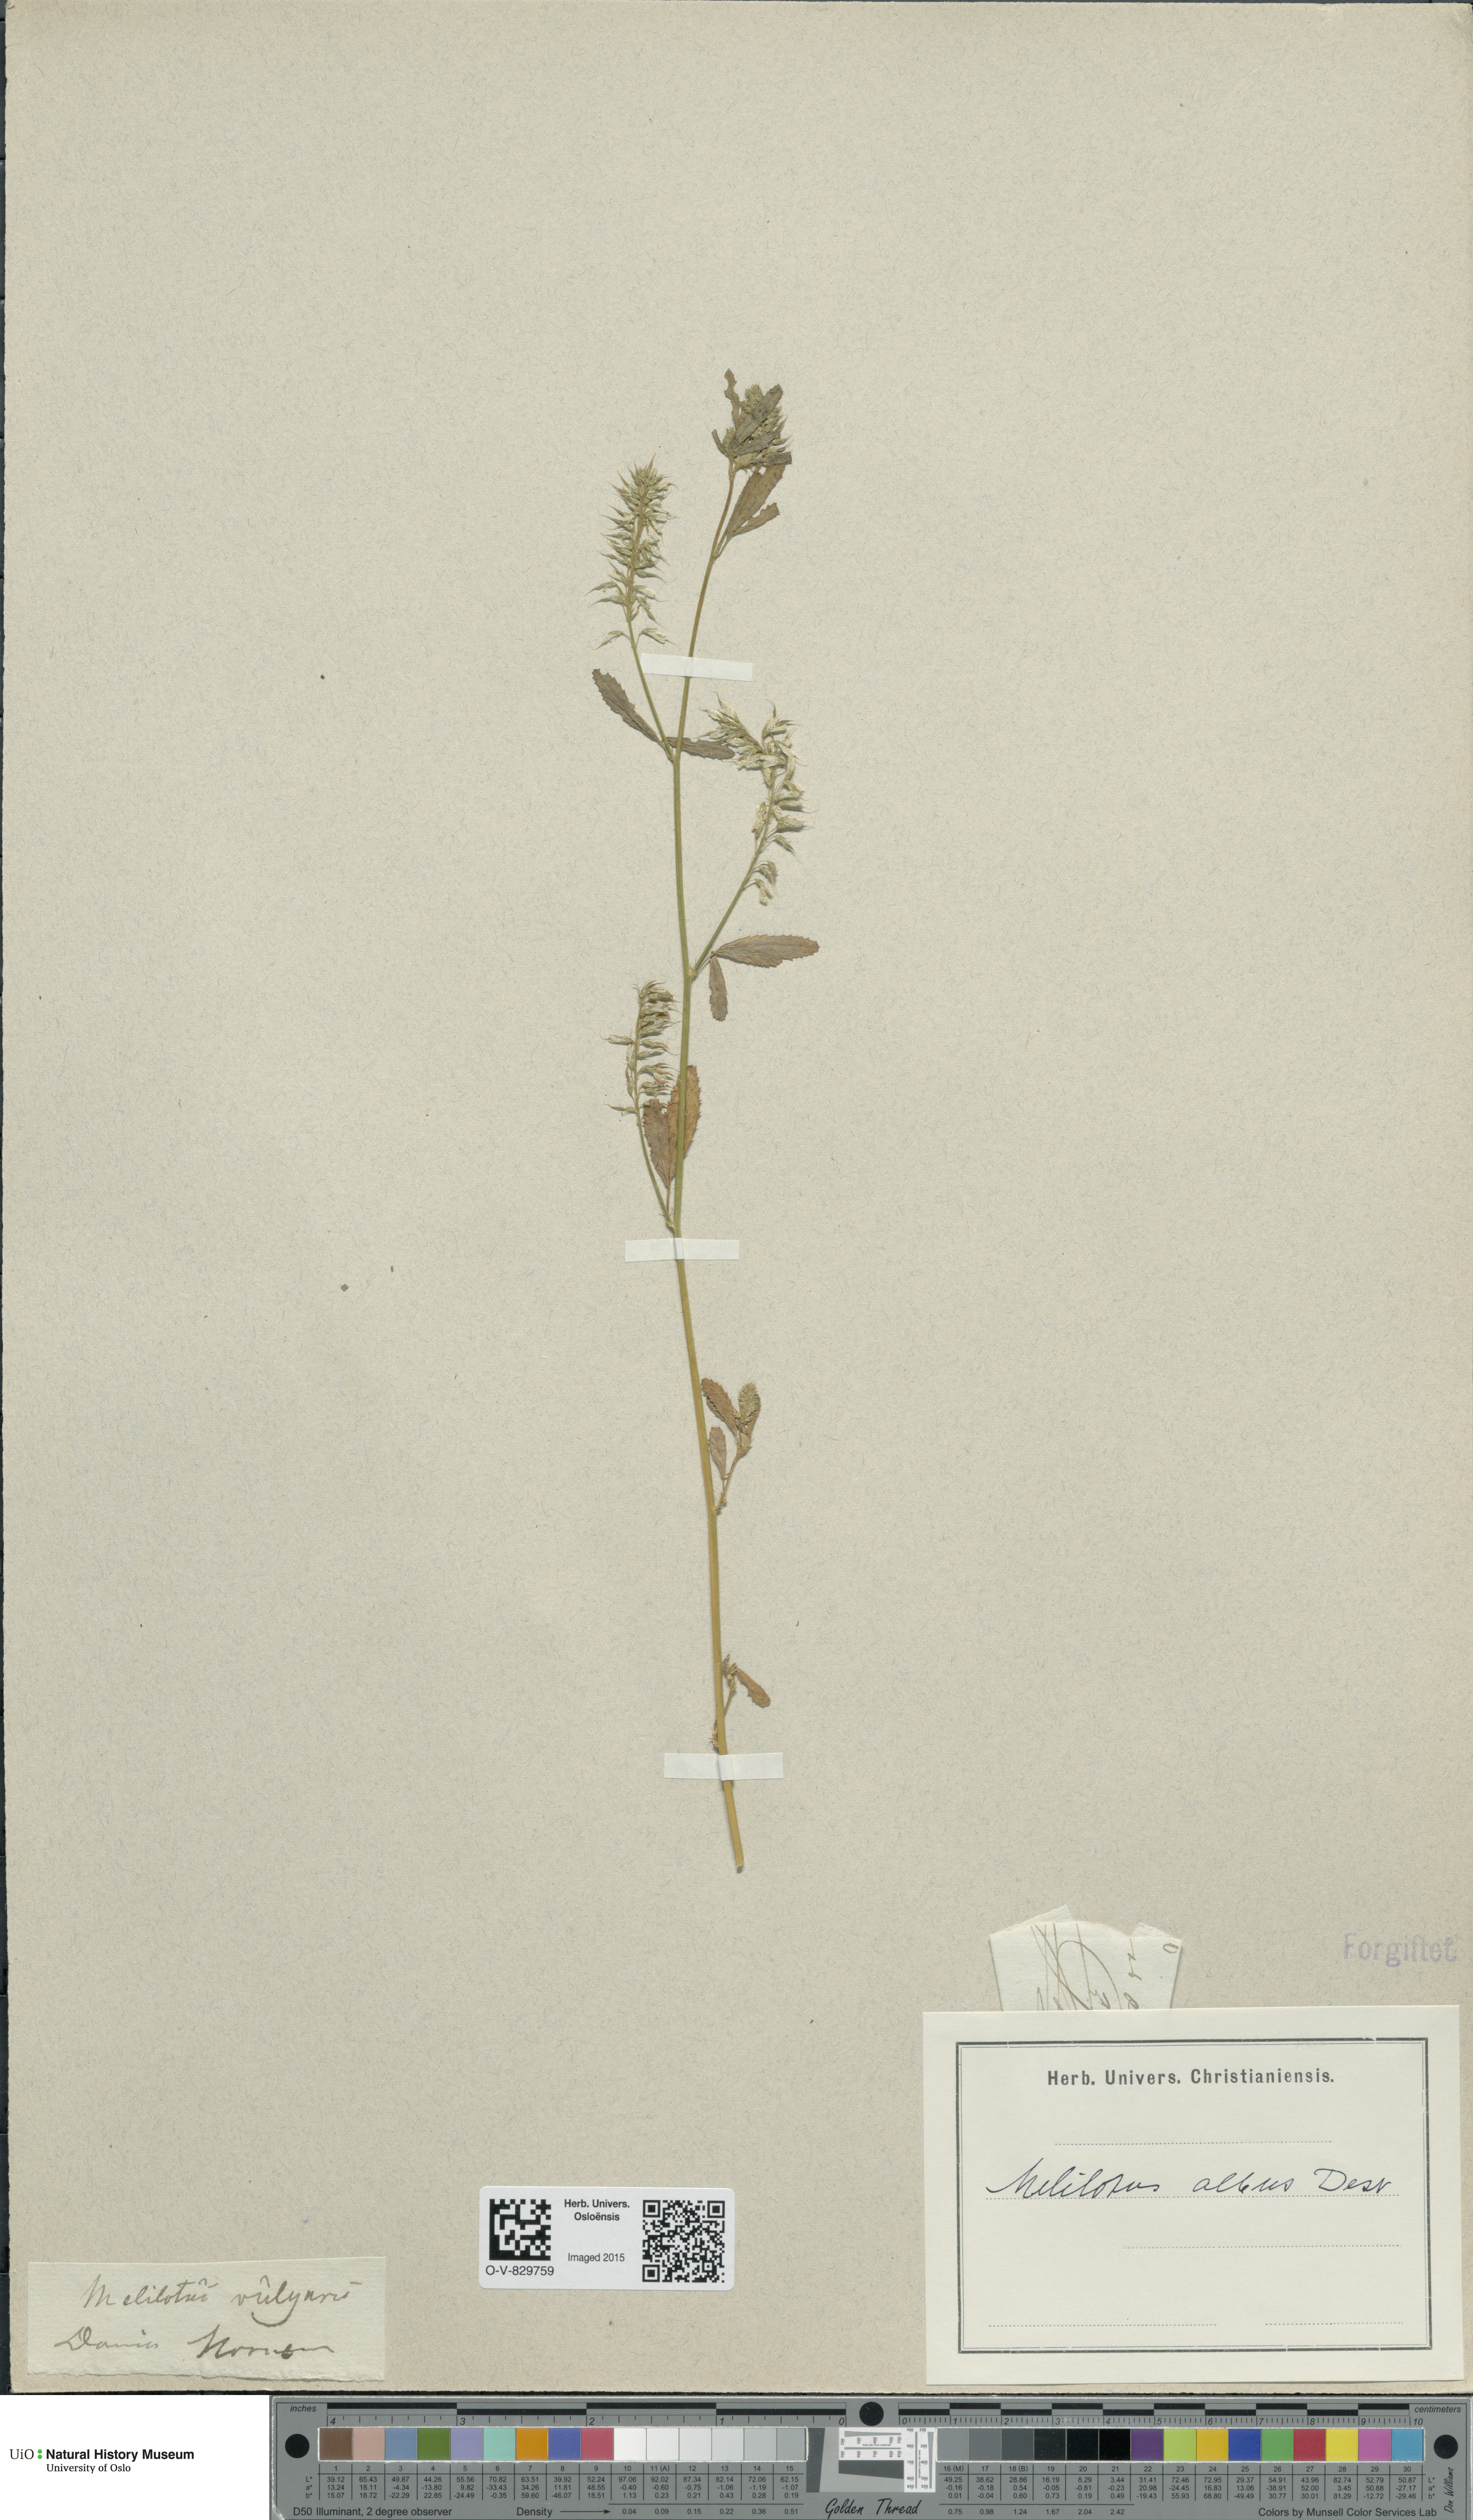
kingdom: Plantae
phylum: Tracheophyta
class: Magnoliopsida
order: Fabales
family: Fabaceae
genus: Melilotus
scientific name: Melilotus albus
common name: White melilot
